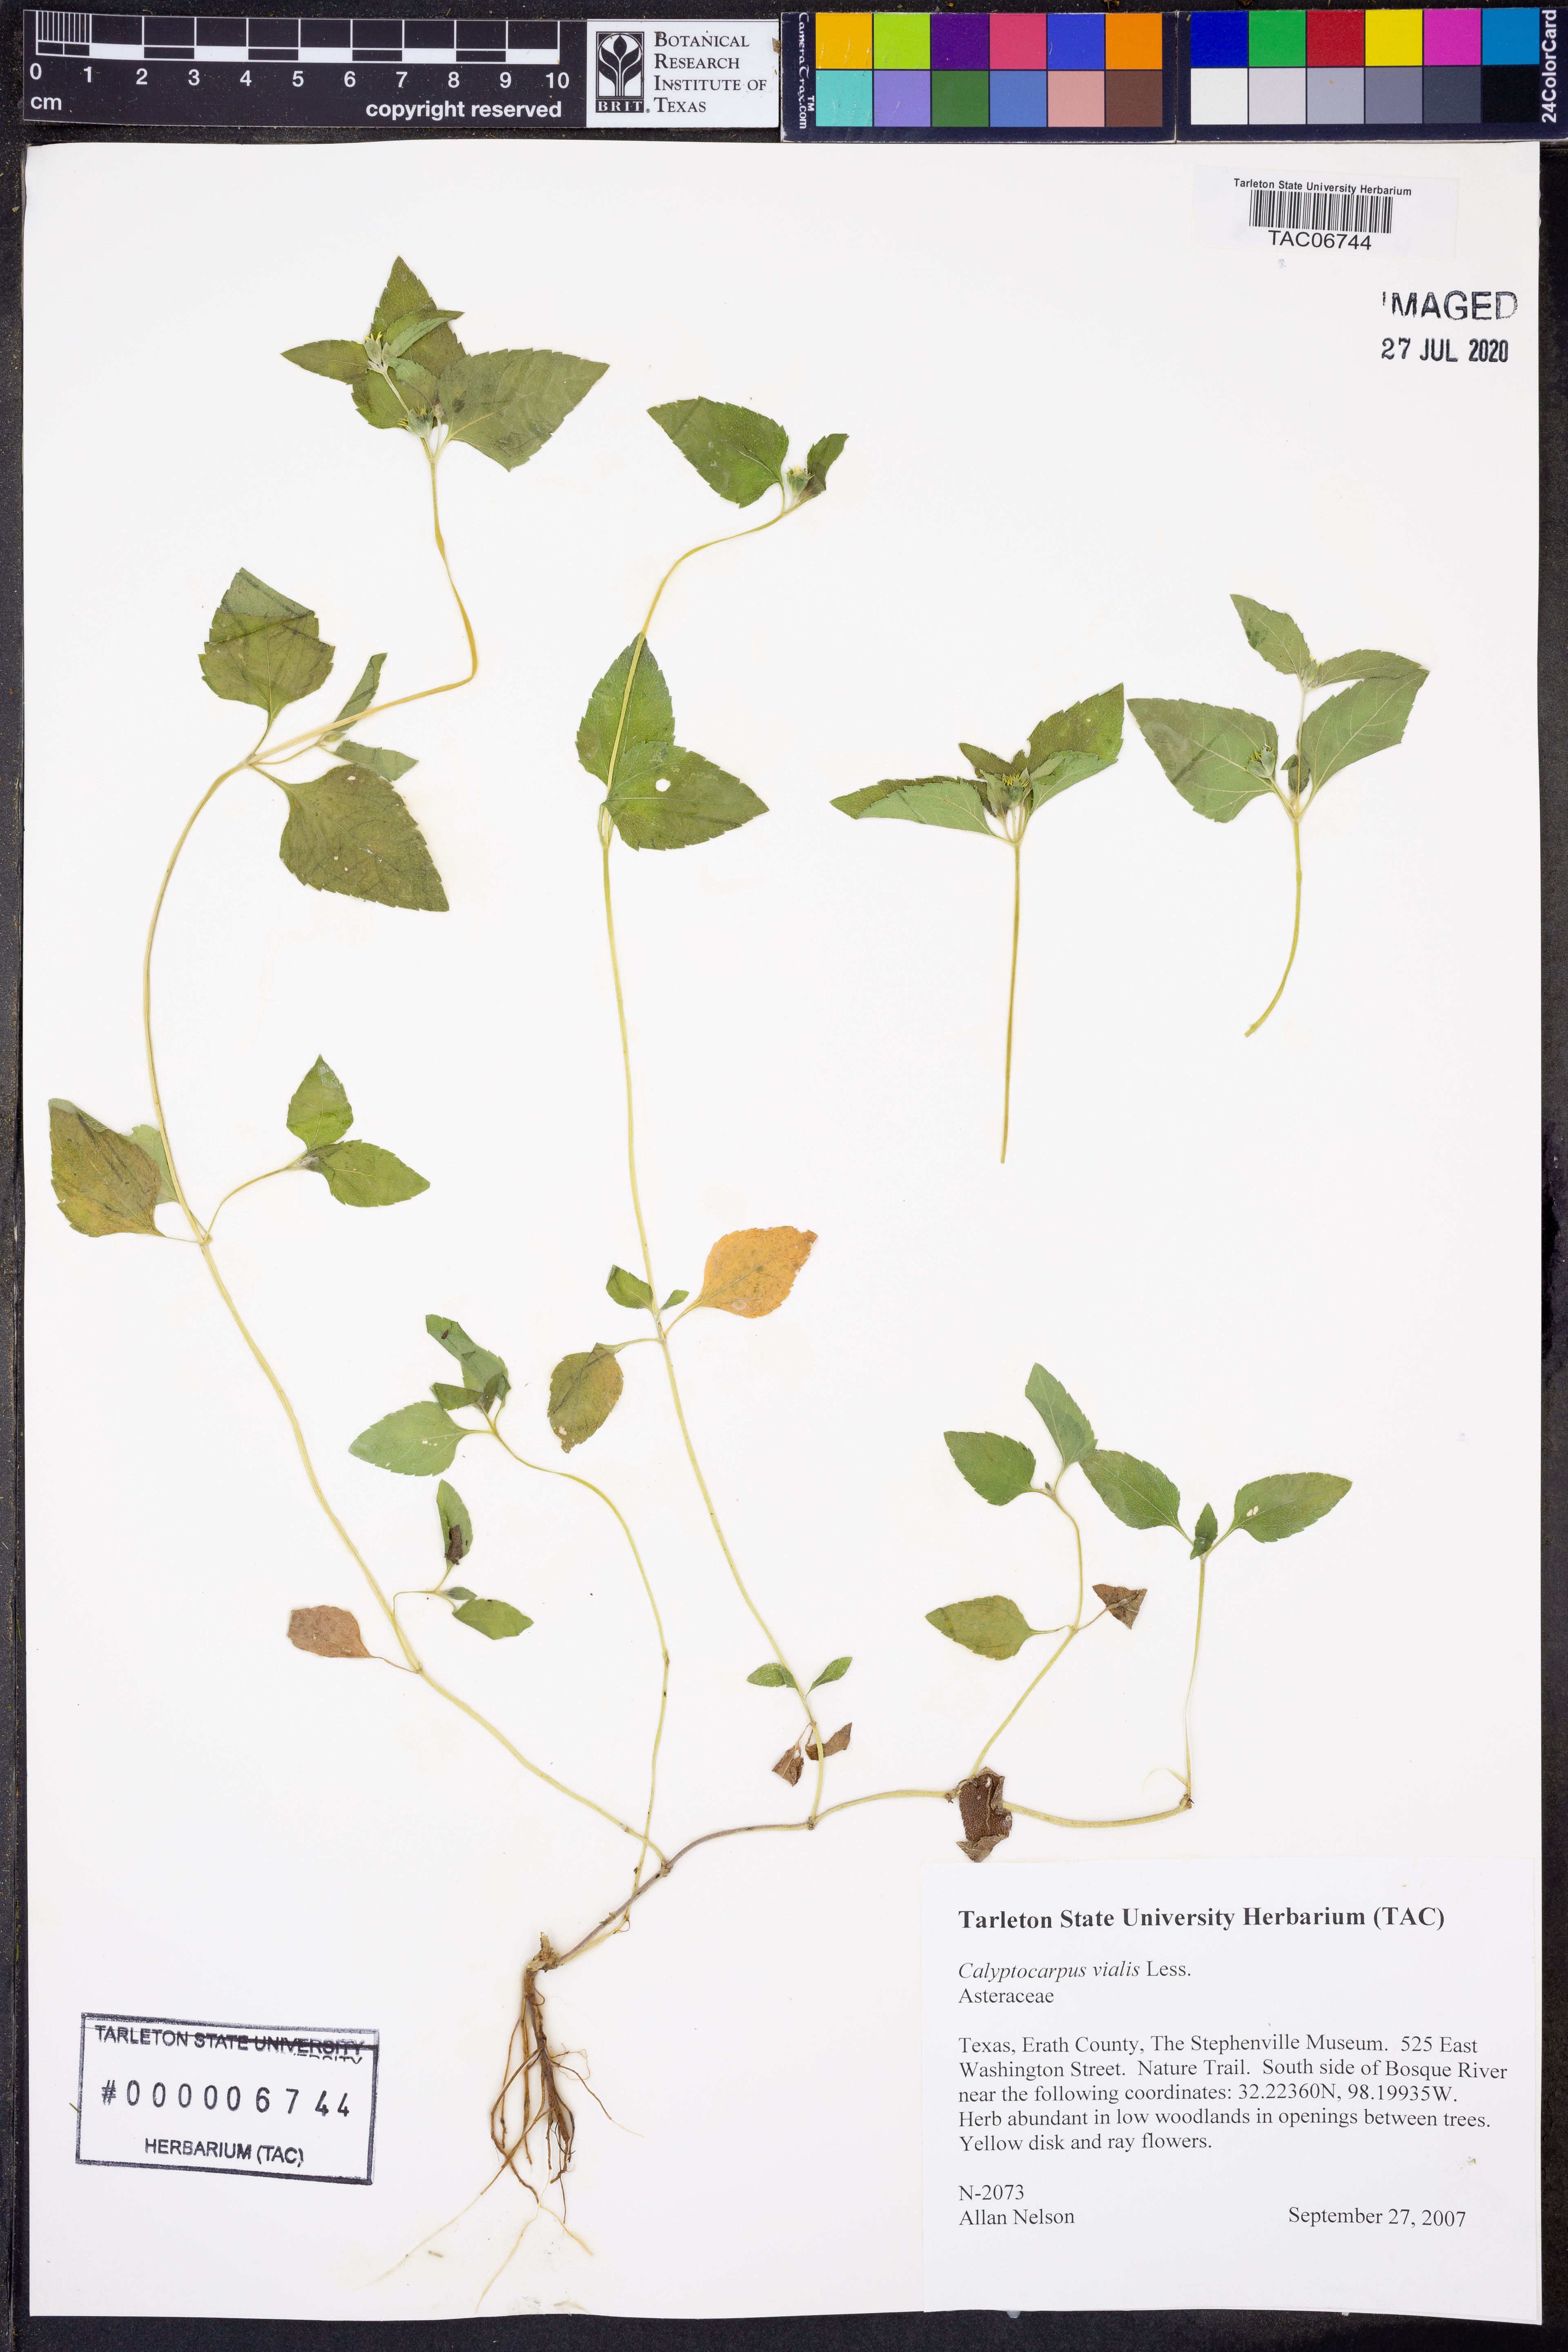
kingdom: Plantae
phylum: Tracheophyta
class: Magnoliopsida
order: Asterales
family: Asteraceae
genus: Calyptocarpus
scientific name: Calyptocarpus vialis
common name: Straggler daisy
